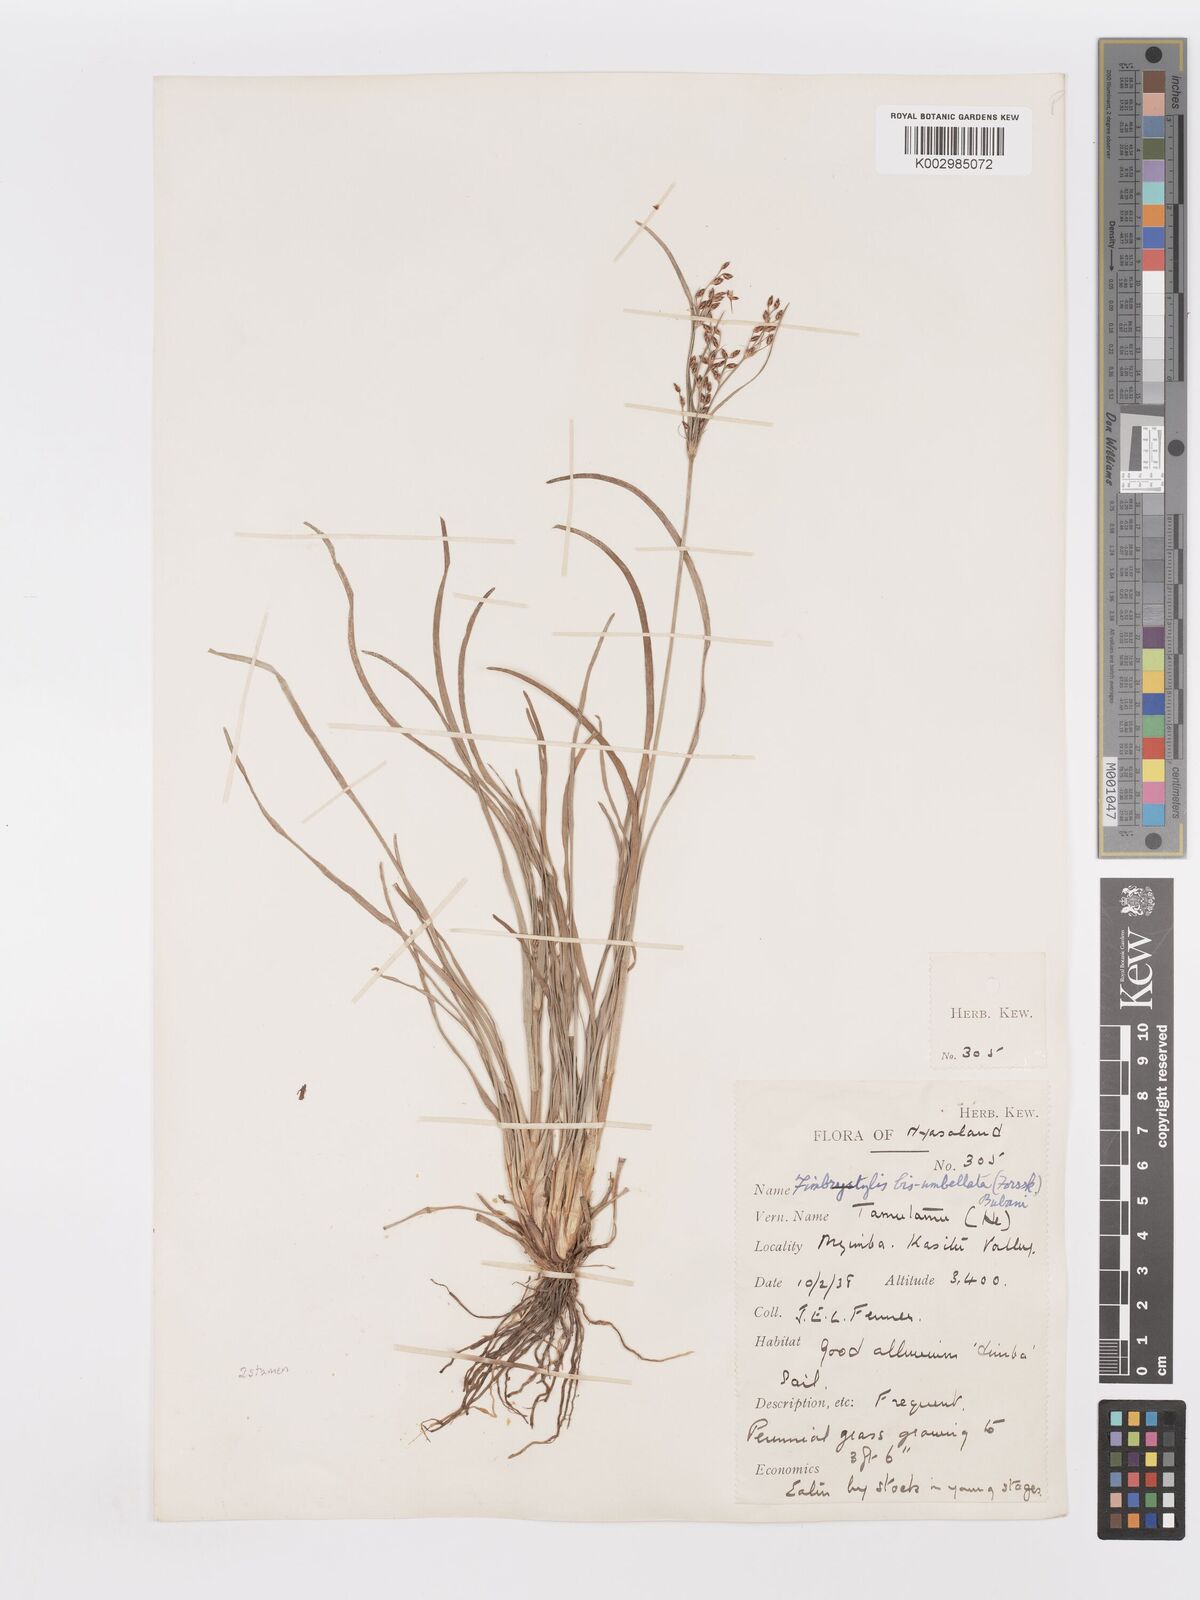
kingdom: Plantae
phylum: Tracheophyta
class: Liliopsida
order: Poales
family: Cyperaceae
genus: Fimbristylis
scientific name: Fimbristylis dichotoma
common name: Forked fimbry
